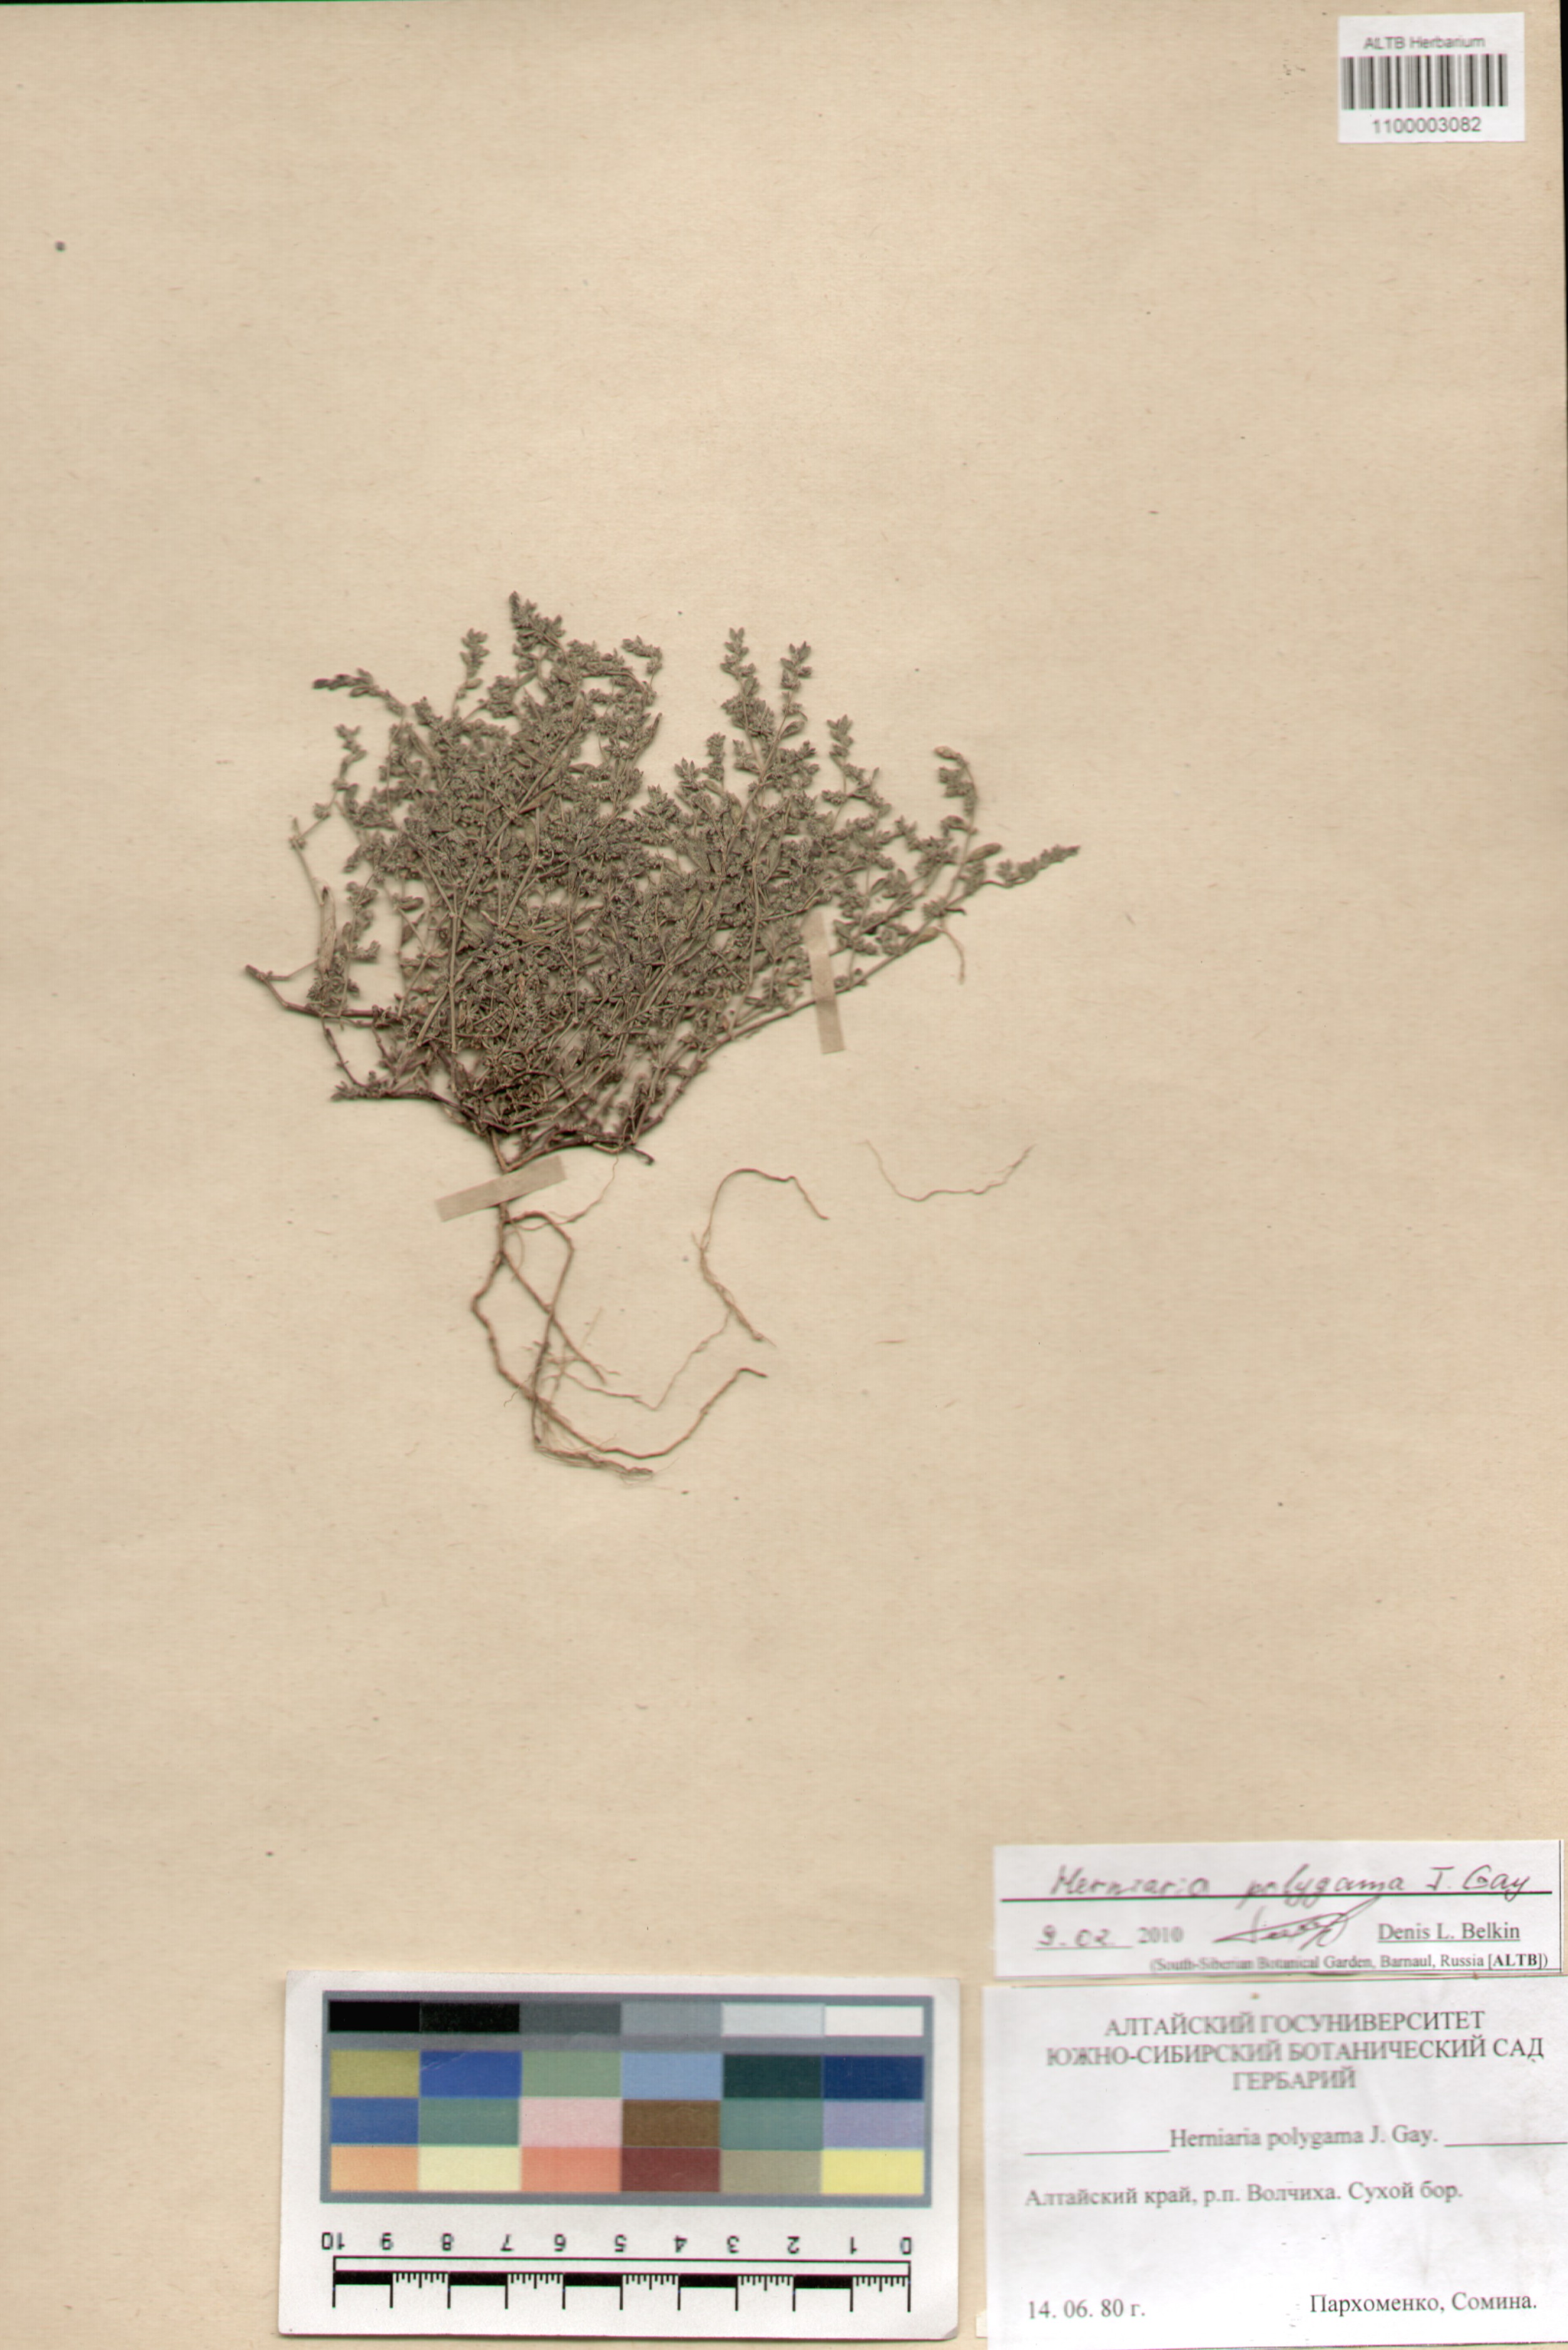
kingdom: Plantae
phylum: Tracheophyta
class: Magnoliopsida
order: Caryophyllales
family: Caryophyllaceae
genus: Herniaria
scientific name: Herniaria polygama
